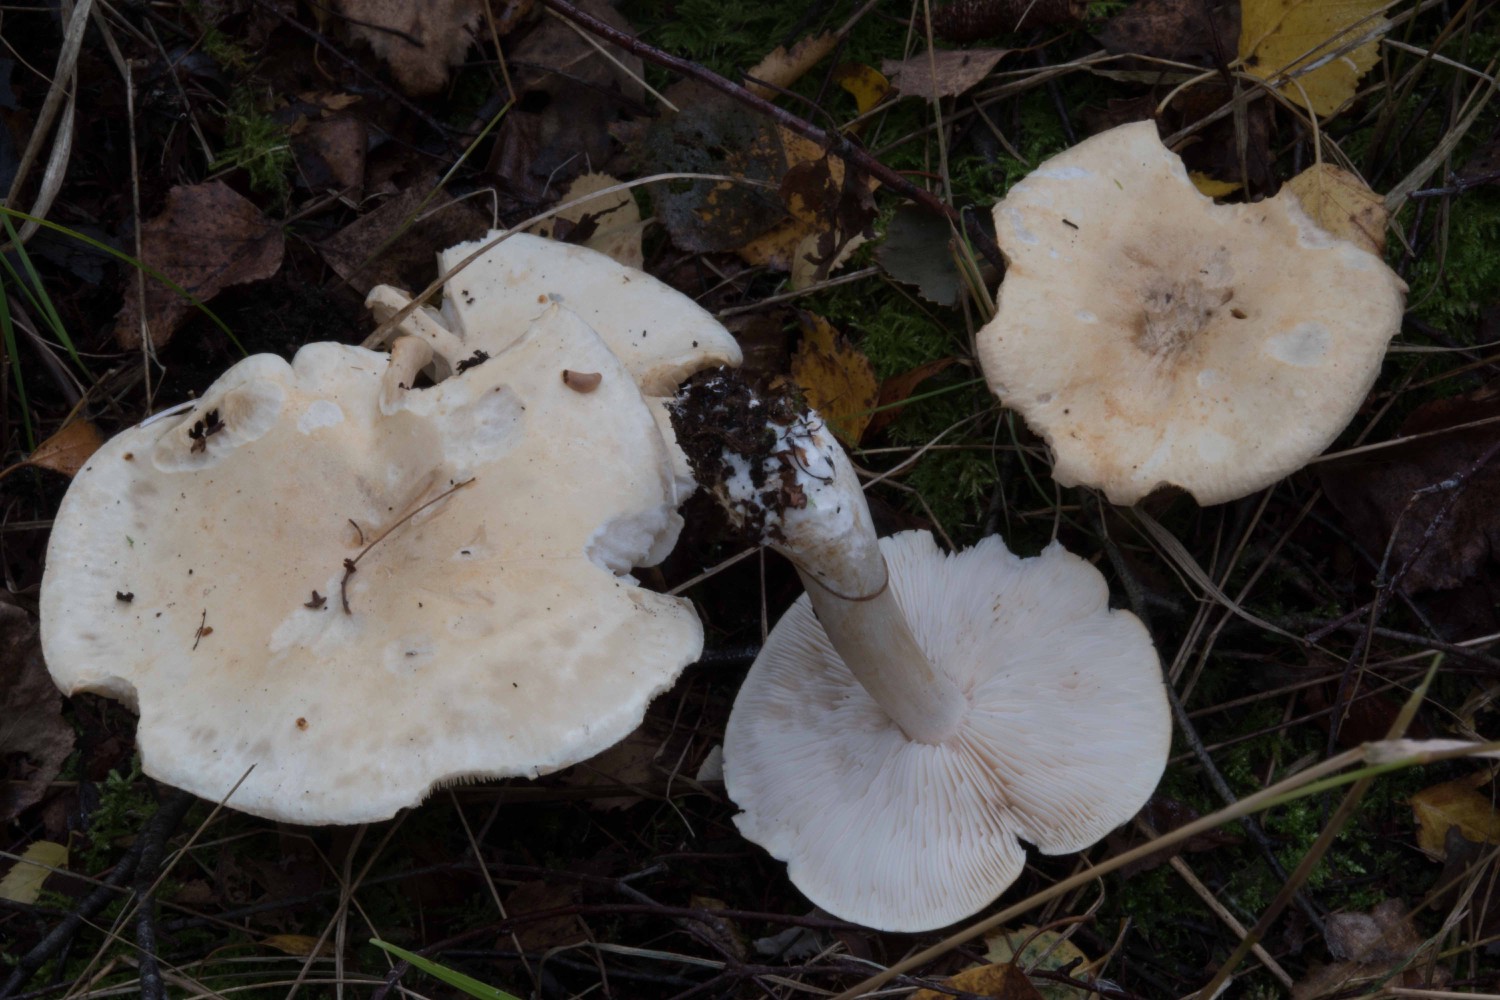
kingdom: Fungi
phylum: Basidiomycota
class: Agaricomycetes
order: Agaricales
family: Tricholomataceae
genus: Tricholoma
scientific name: Tricholoma stiparophyllum
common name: hvid ridderhat
